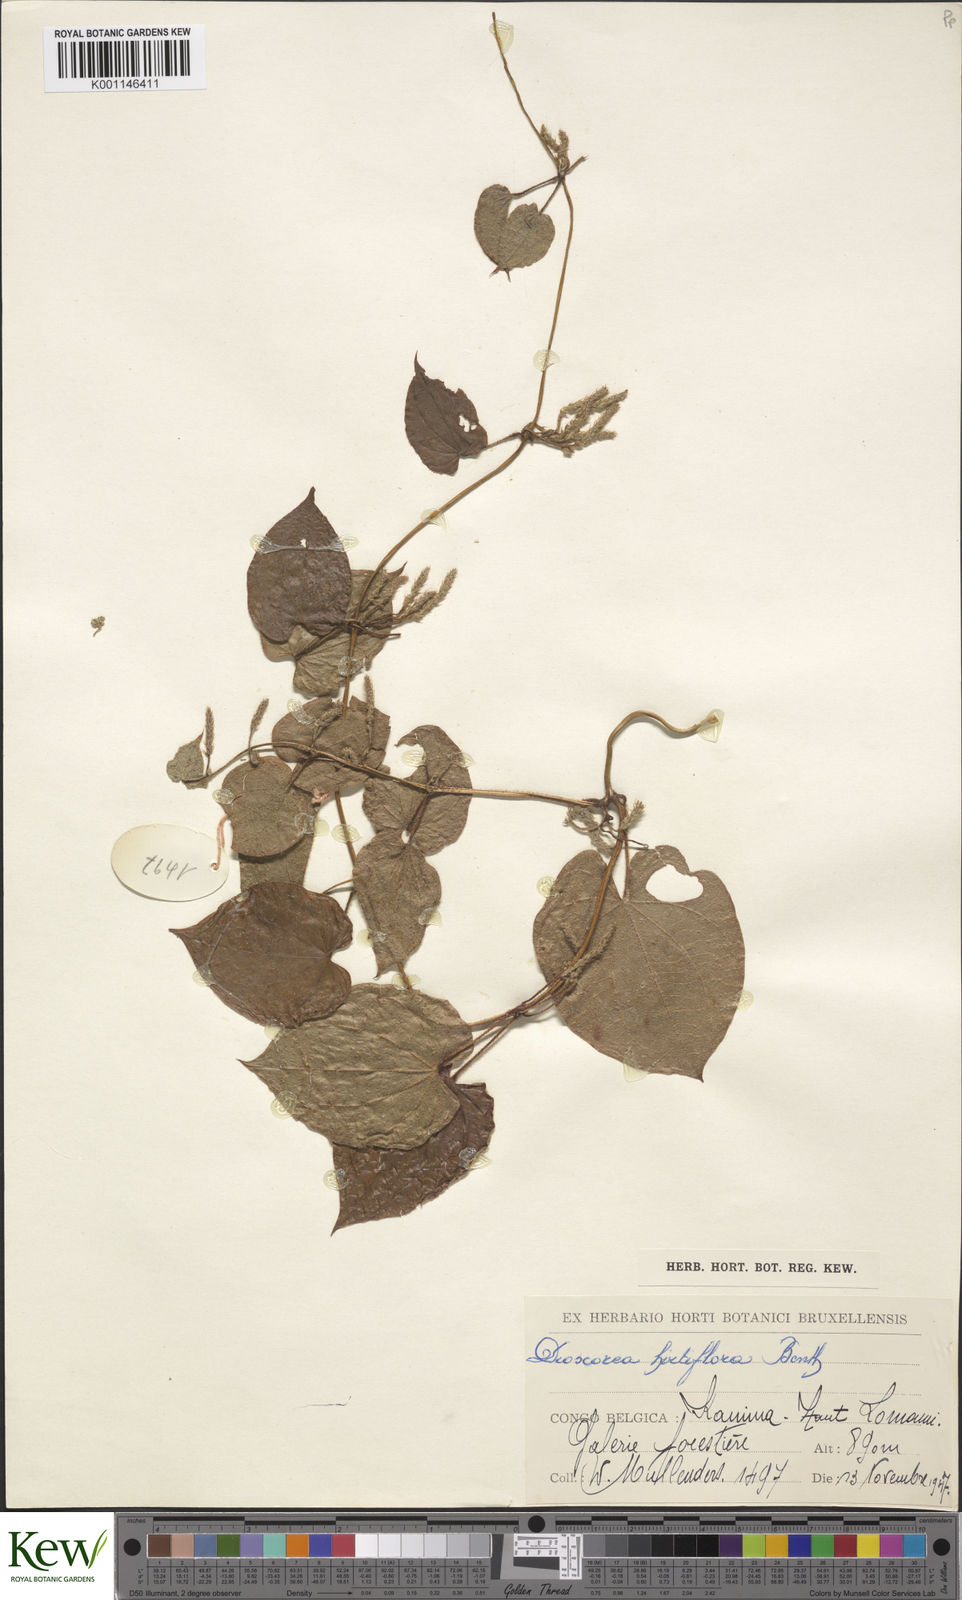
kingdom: Plantae
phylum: Tracheophyta
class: Liliopsida
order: Dioscoreales
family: Dioscoreaceae
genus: Dioscorea
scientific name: Dioscorea hirtiflora
